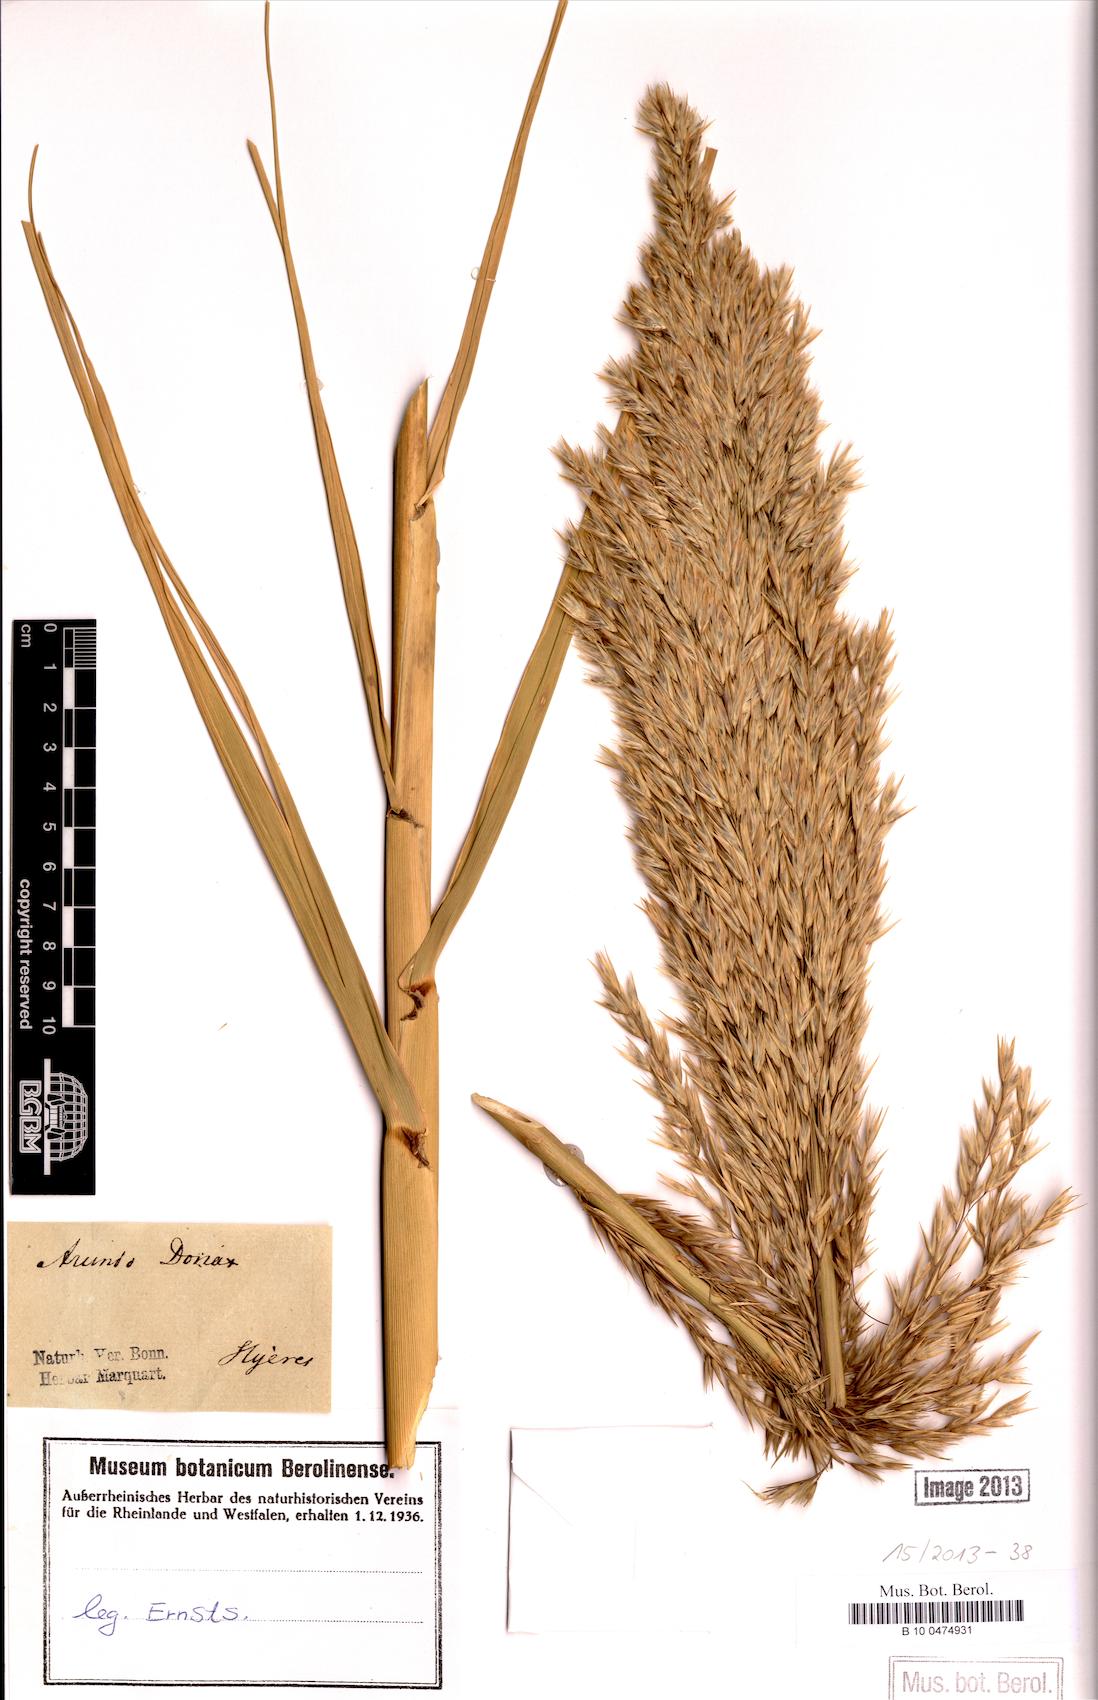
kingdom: Plantae
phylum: Tracheophyta
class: Liliopsida
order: Poales
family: Poaceae
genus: Arundo
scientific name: Arundo donax
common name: Giant reed
